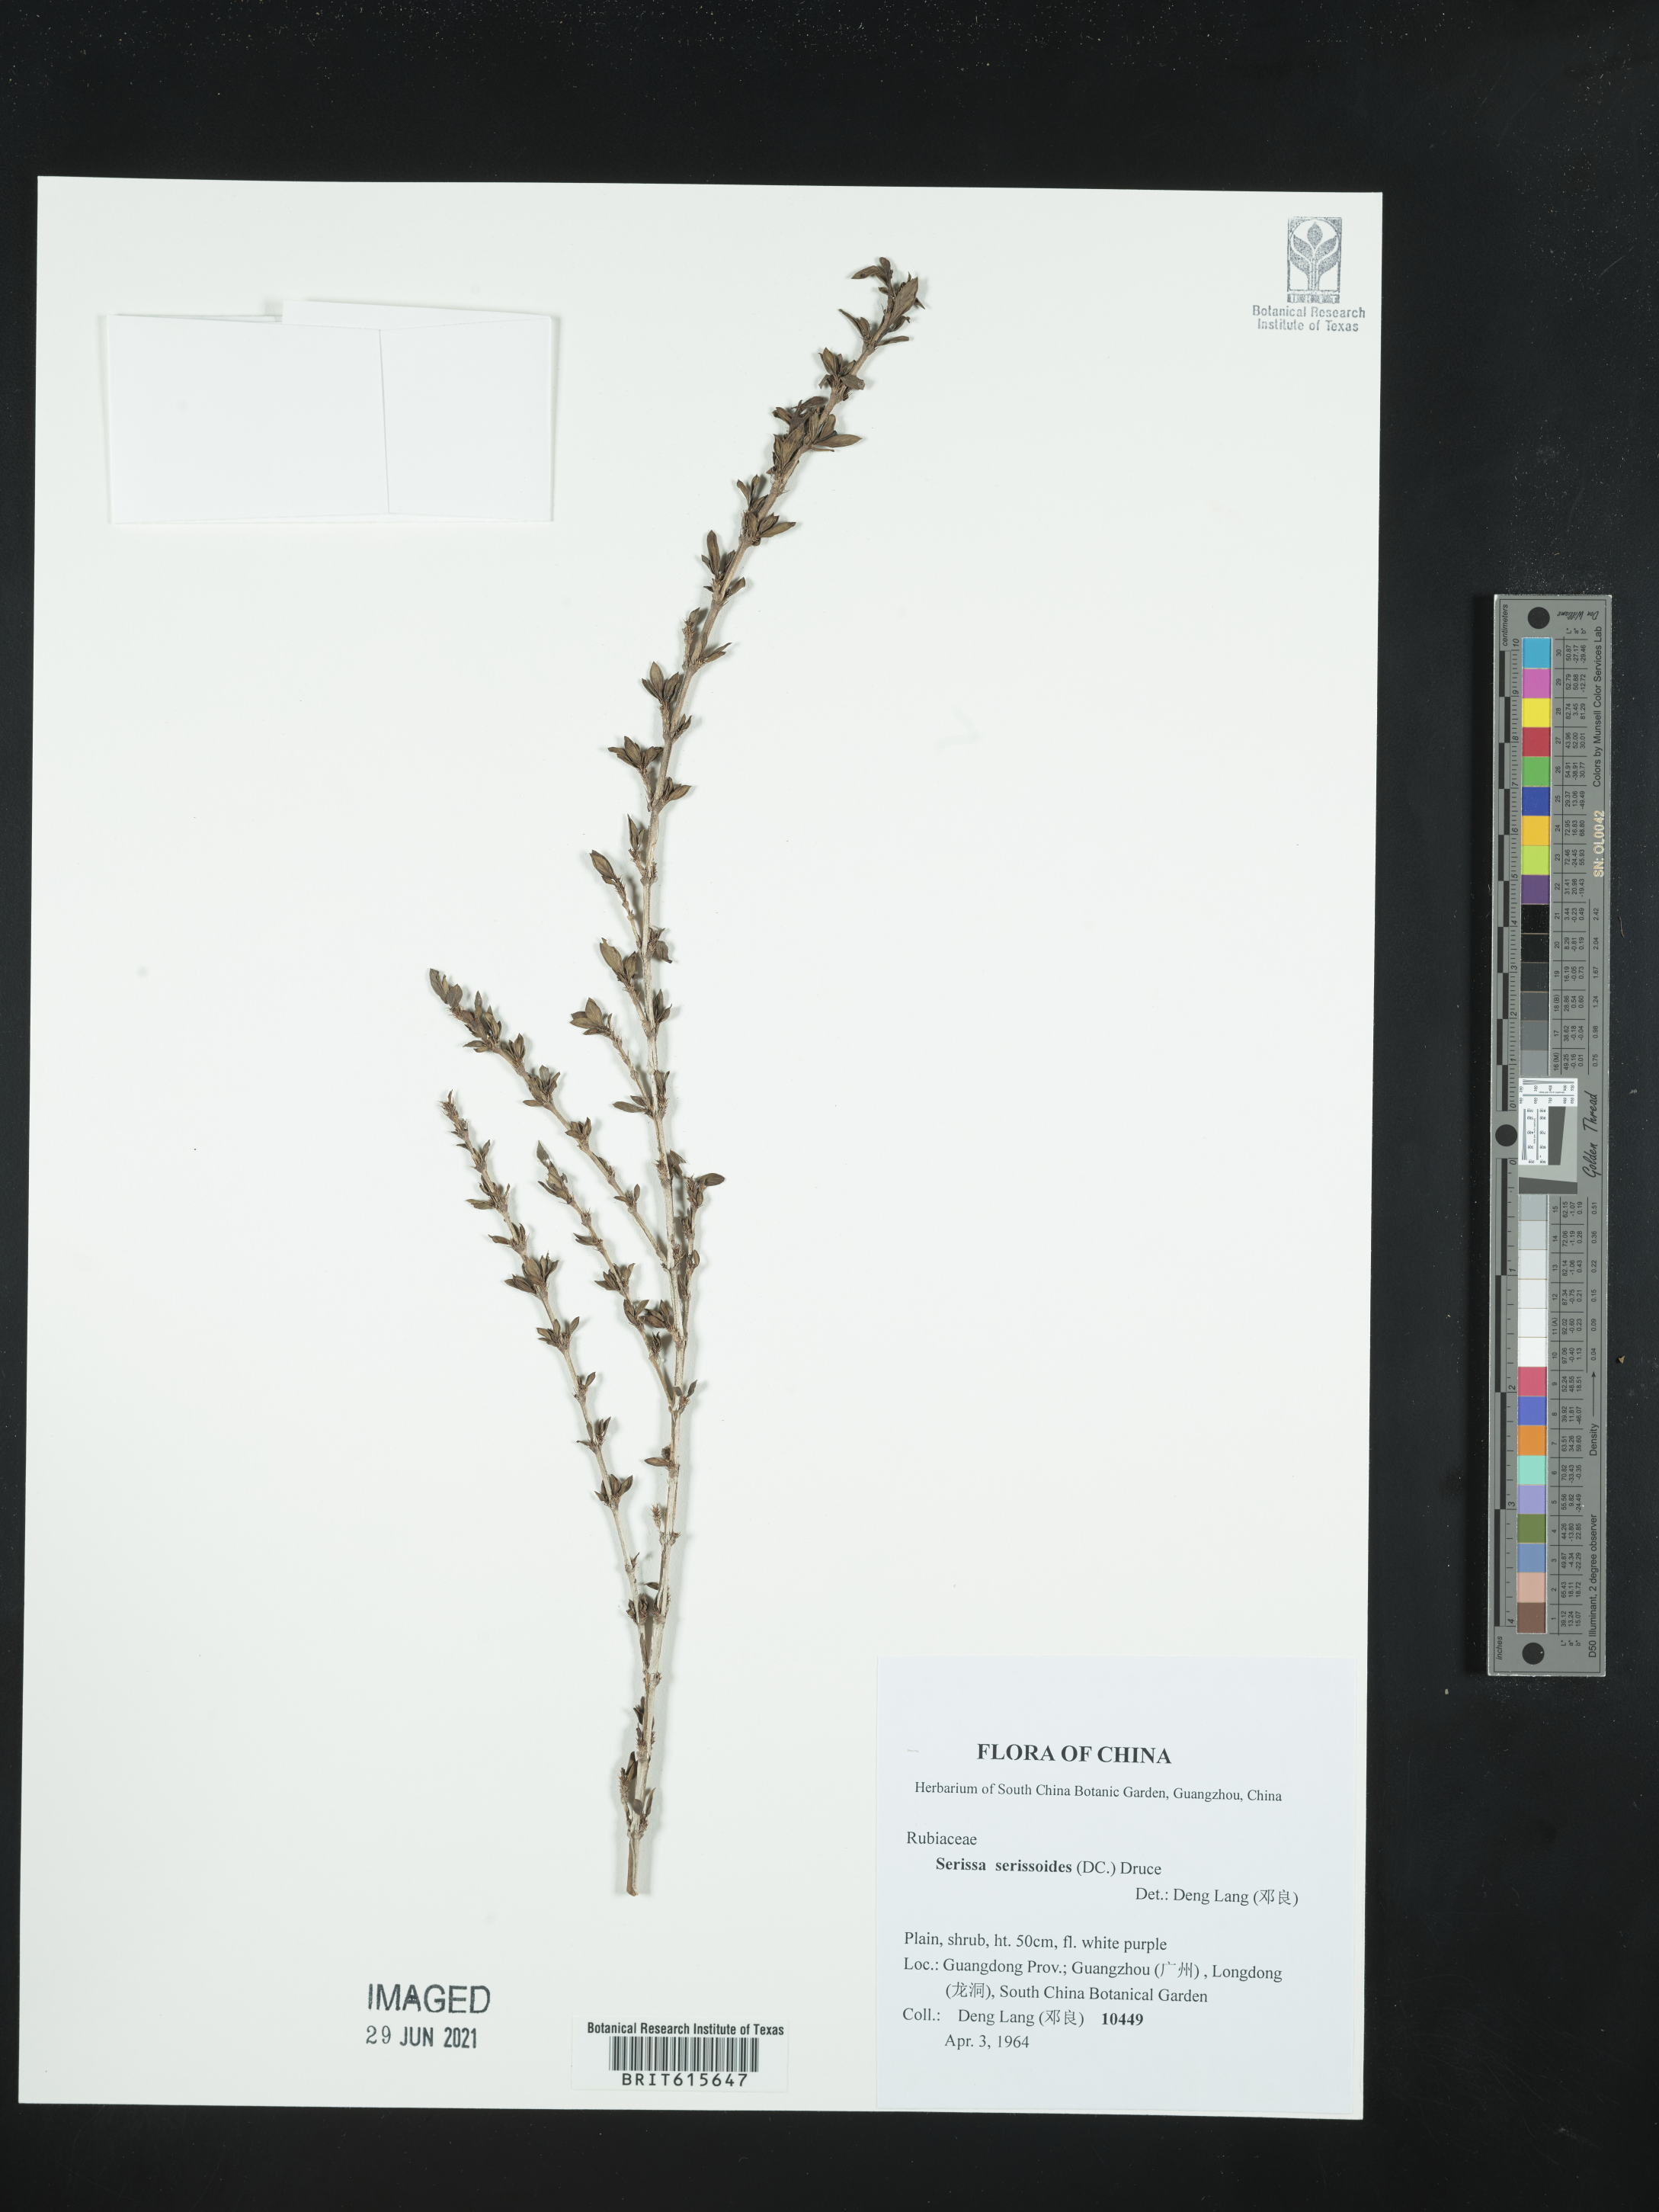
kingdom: Plantae
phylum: Tracheophyta
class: Magnoliopsida
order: Gentianales
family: Rubiaceae
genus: Buchozia
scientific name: Buchozia japonica
